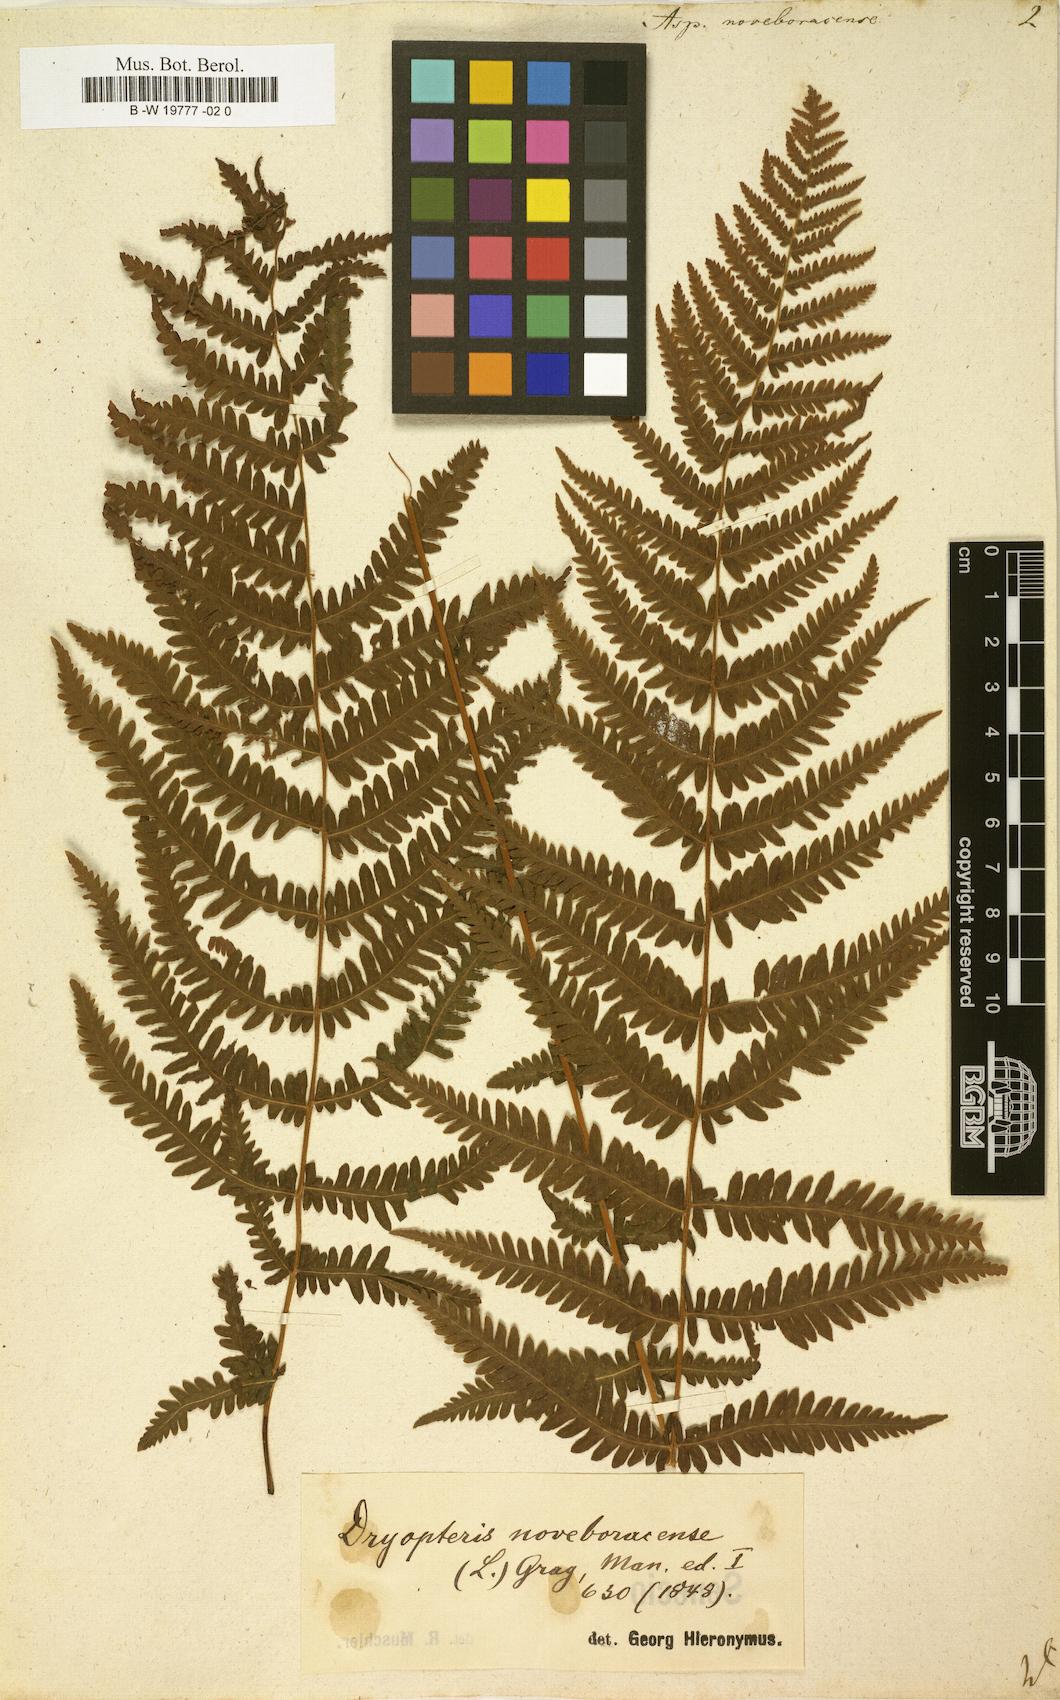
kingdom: Plantae
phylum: Tracheophyta
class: Polypodiopsida
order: Polypodiales
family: Thelypteridaceae
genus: Amauropelta
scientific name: Amauropelta noveboracensis
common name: New york fern
